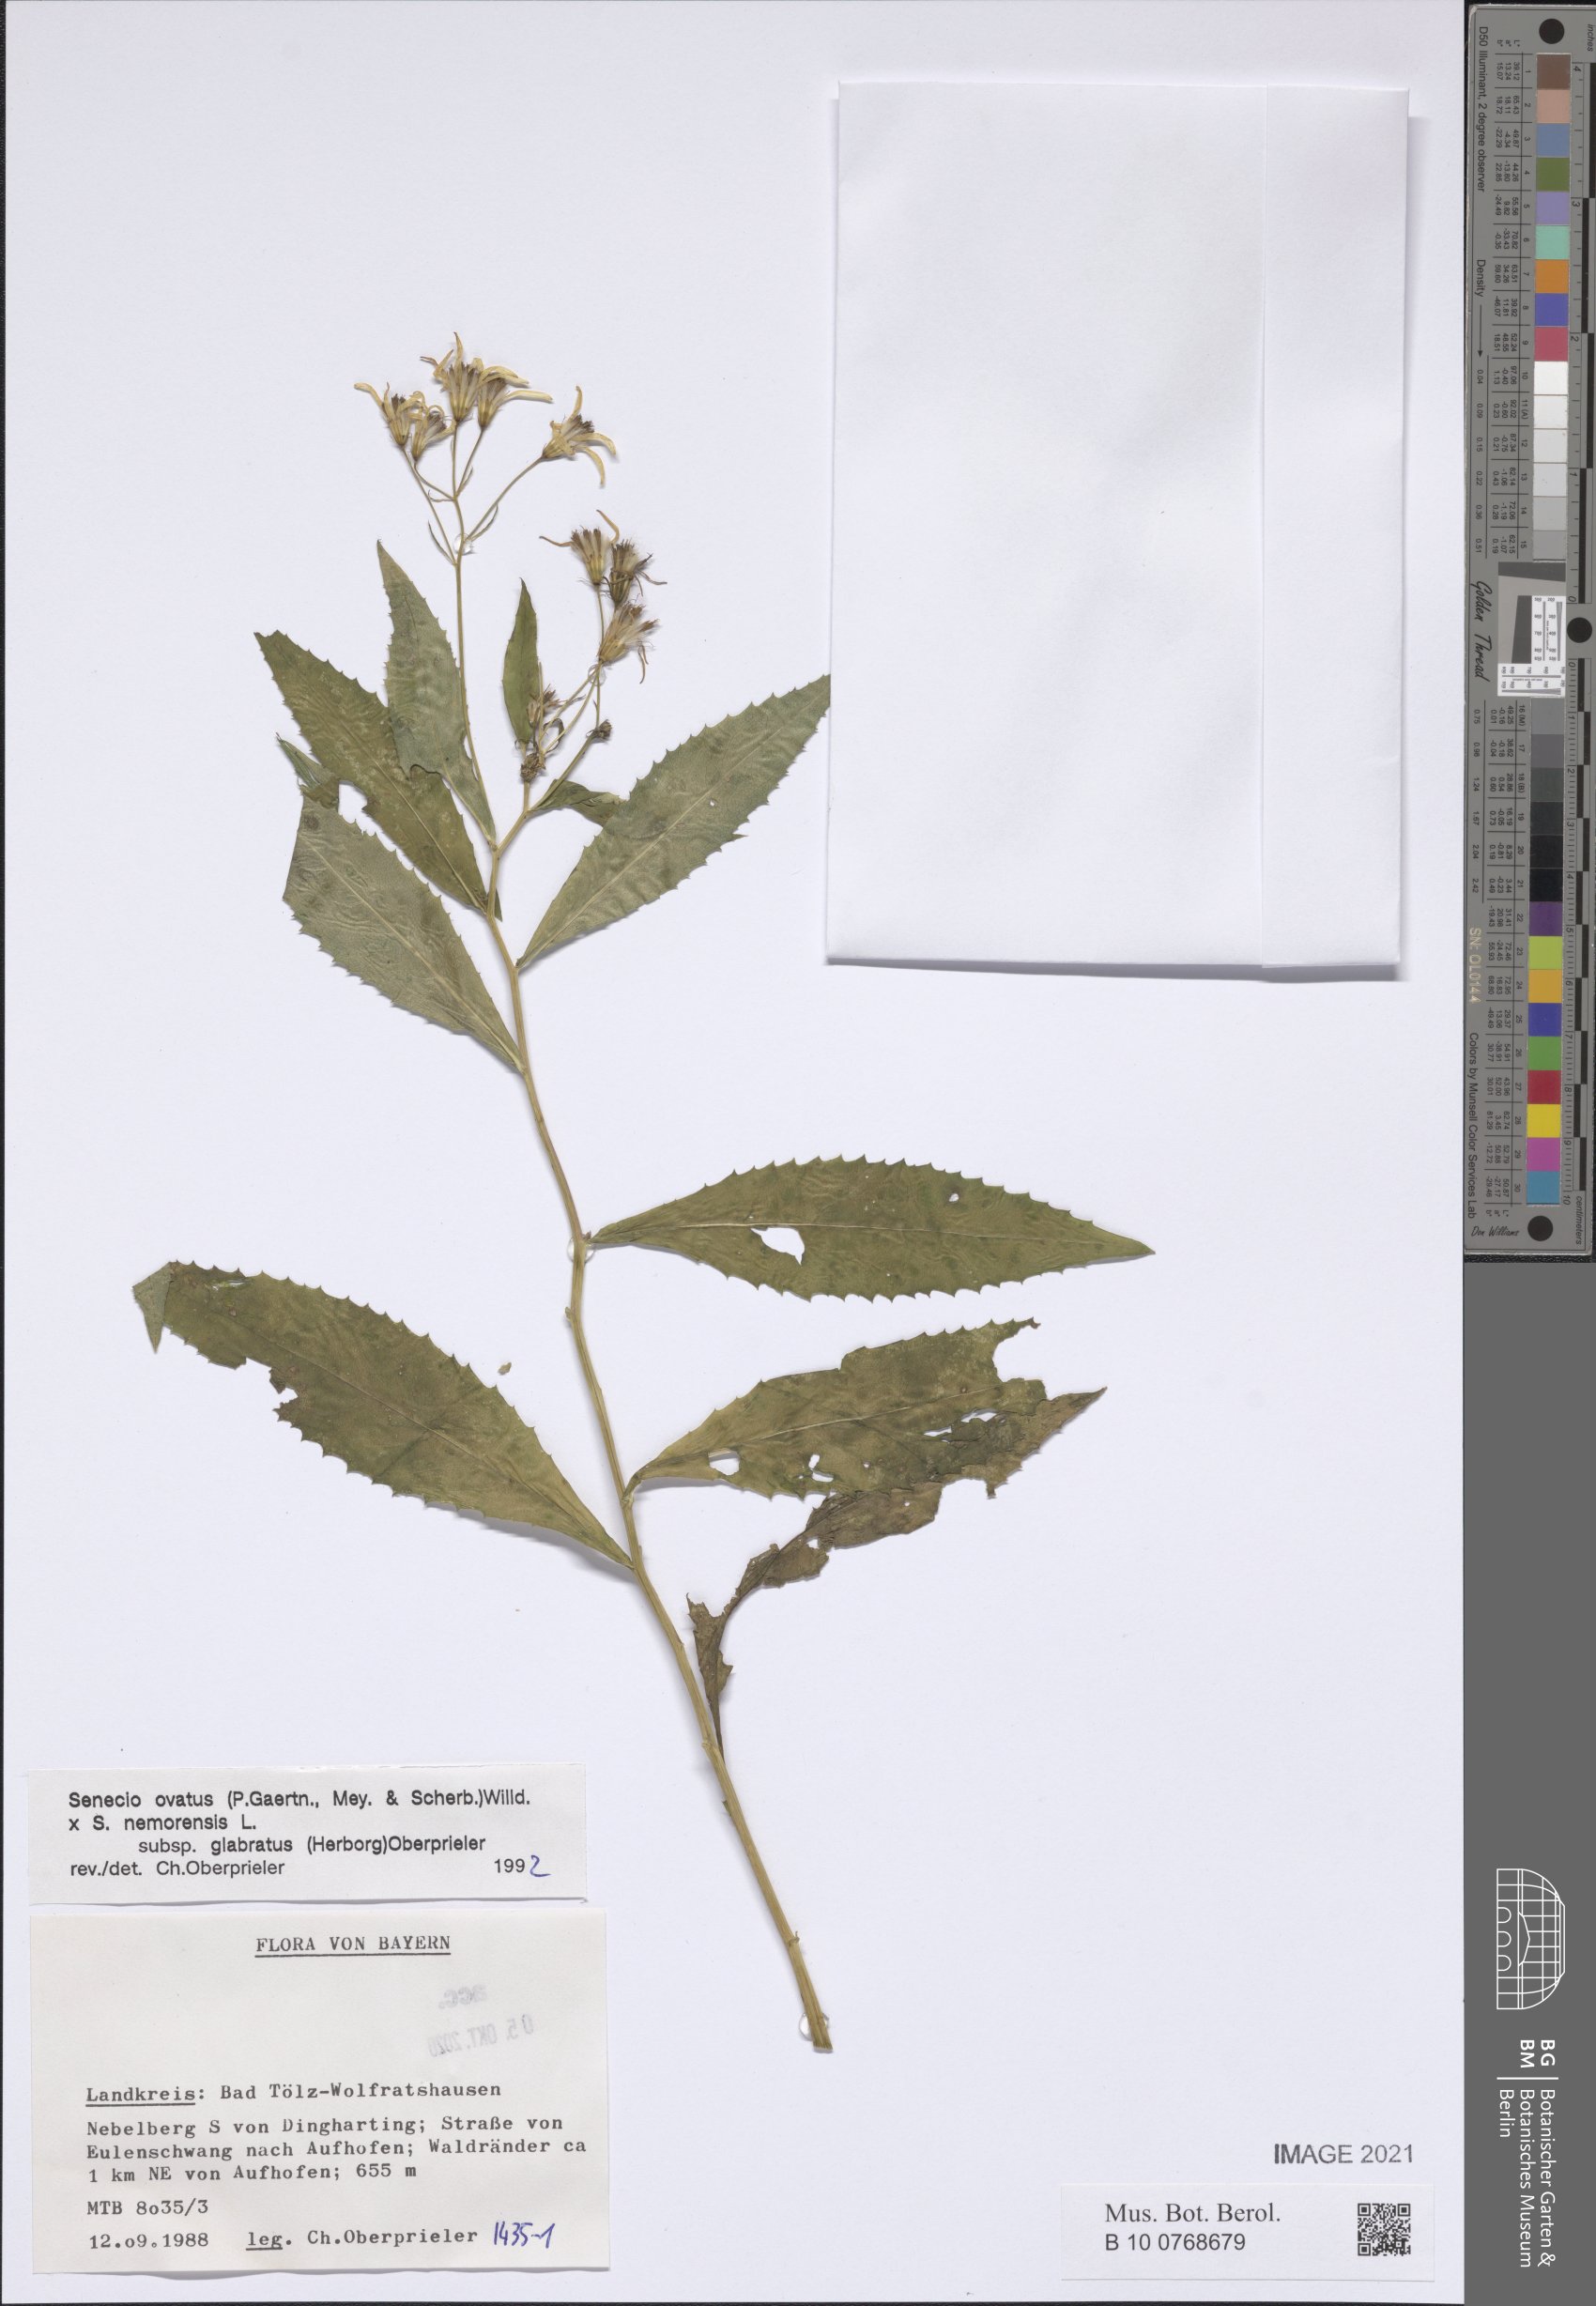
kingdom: Plantae
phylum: Tracheophyta
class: Magnoliopsida
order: Asterales
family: Asteraceae
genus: Senecio
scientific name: Senecio ovatus
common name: Wood ragwort
